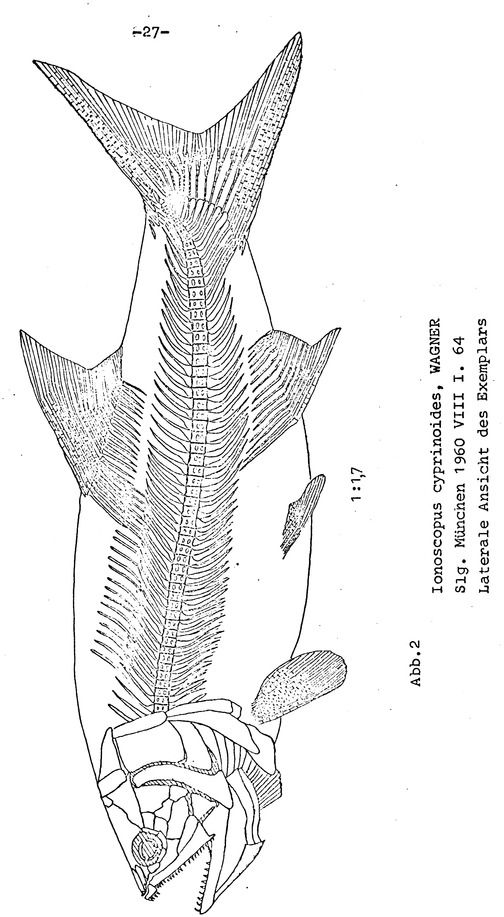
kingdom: Animalia
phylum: Chordata
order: Amiiformes
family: Ionoscopidae
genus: Ionoscopus
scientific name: Ionoscopus cyprinoides
